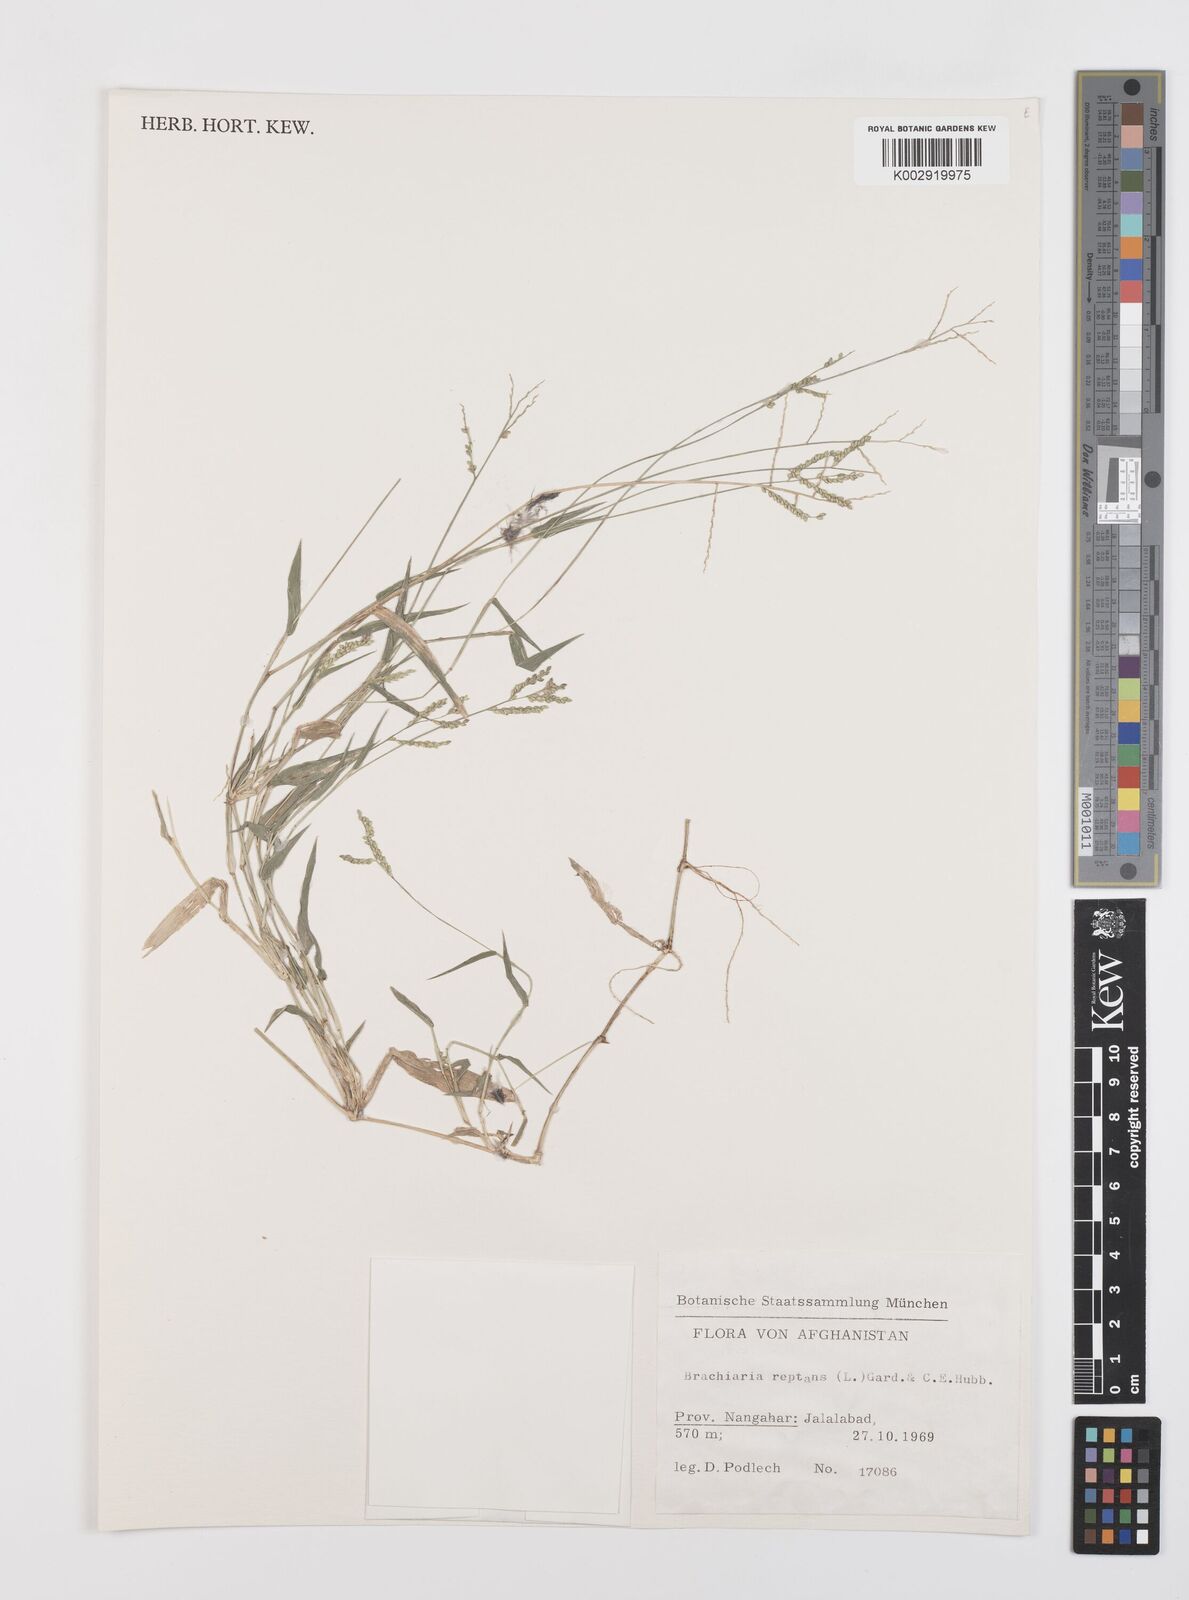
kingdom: Plantae
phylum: Tracheophyta
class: Liliopsida
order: Poales
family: Poaceae
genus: Urochloa
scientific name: Urochloa reptans
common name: Sprawling signalgrass
